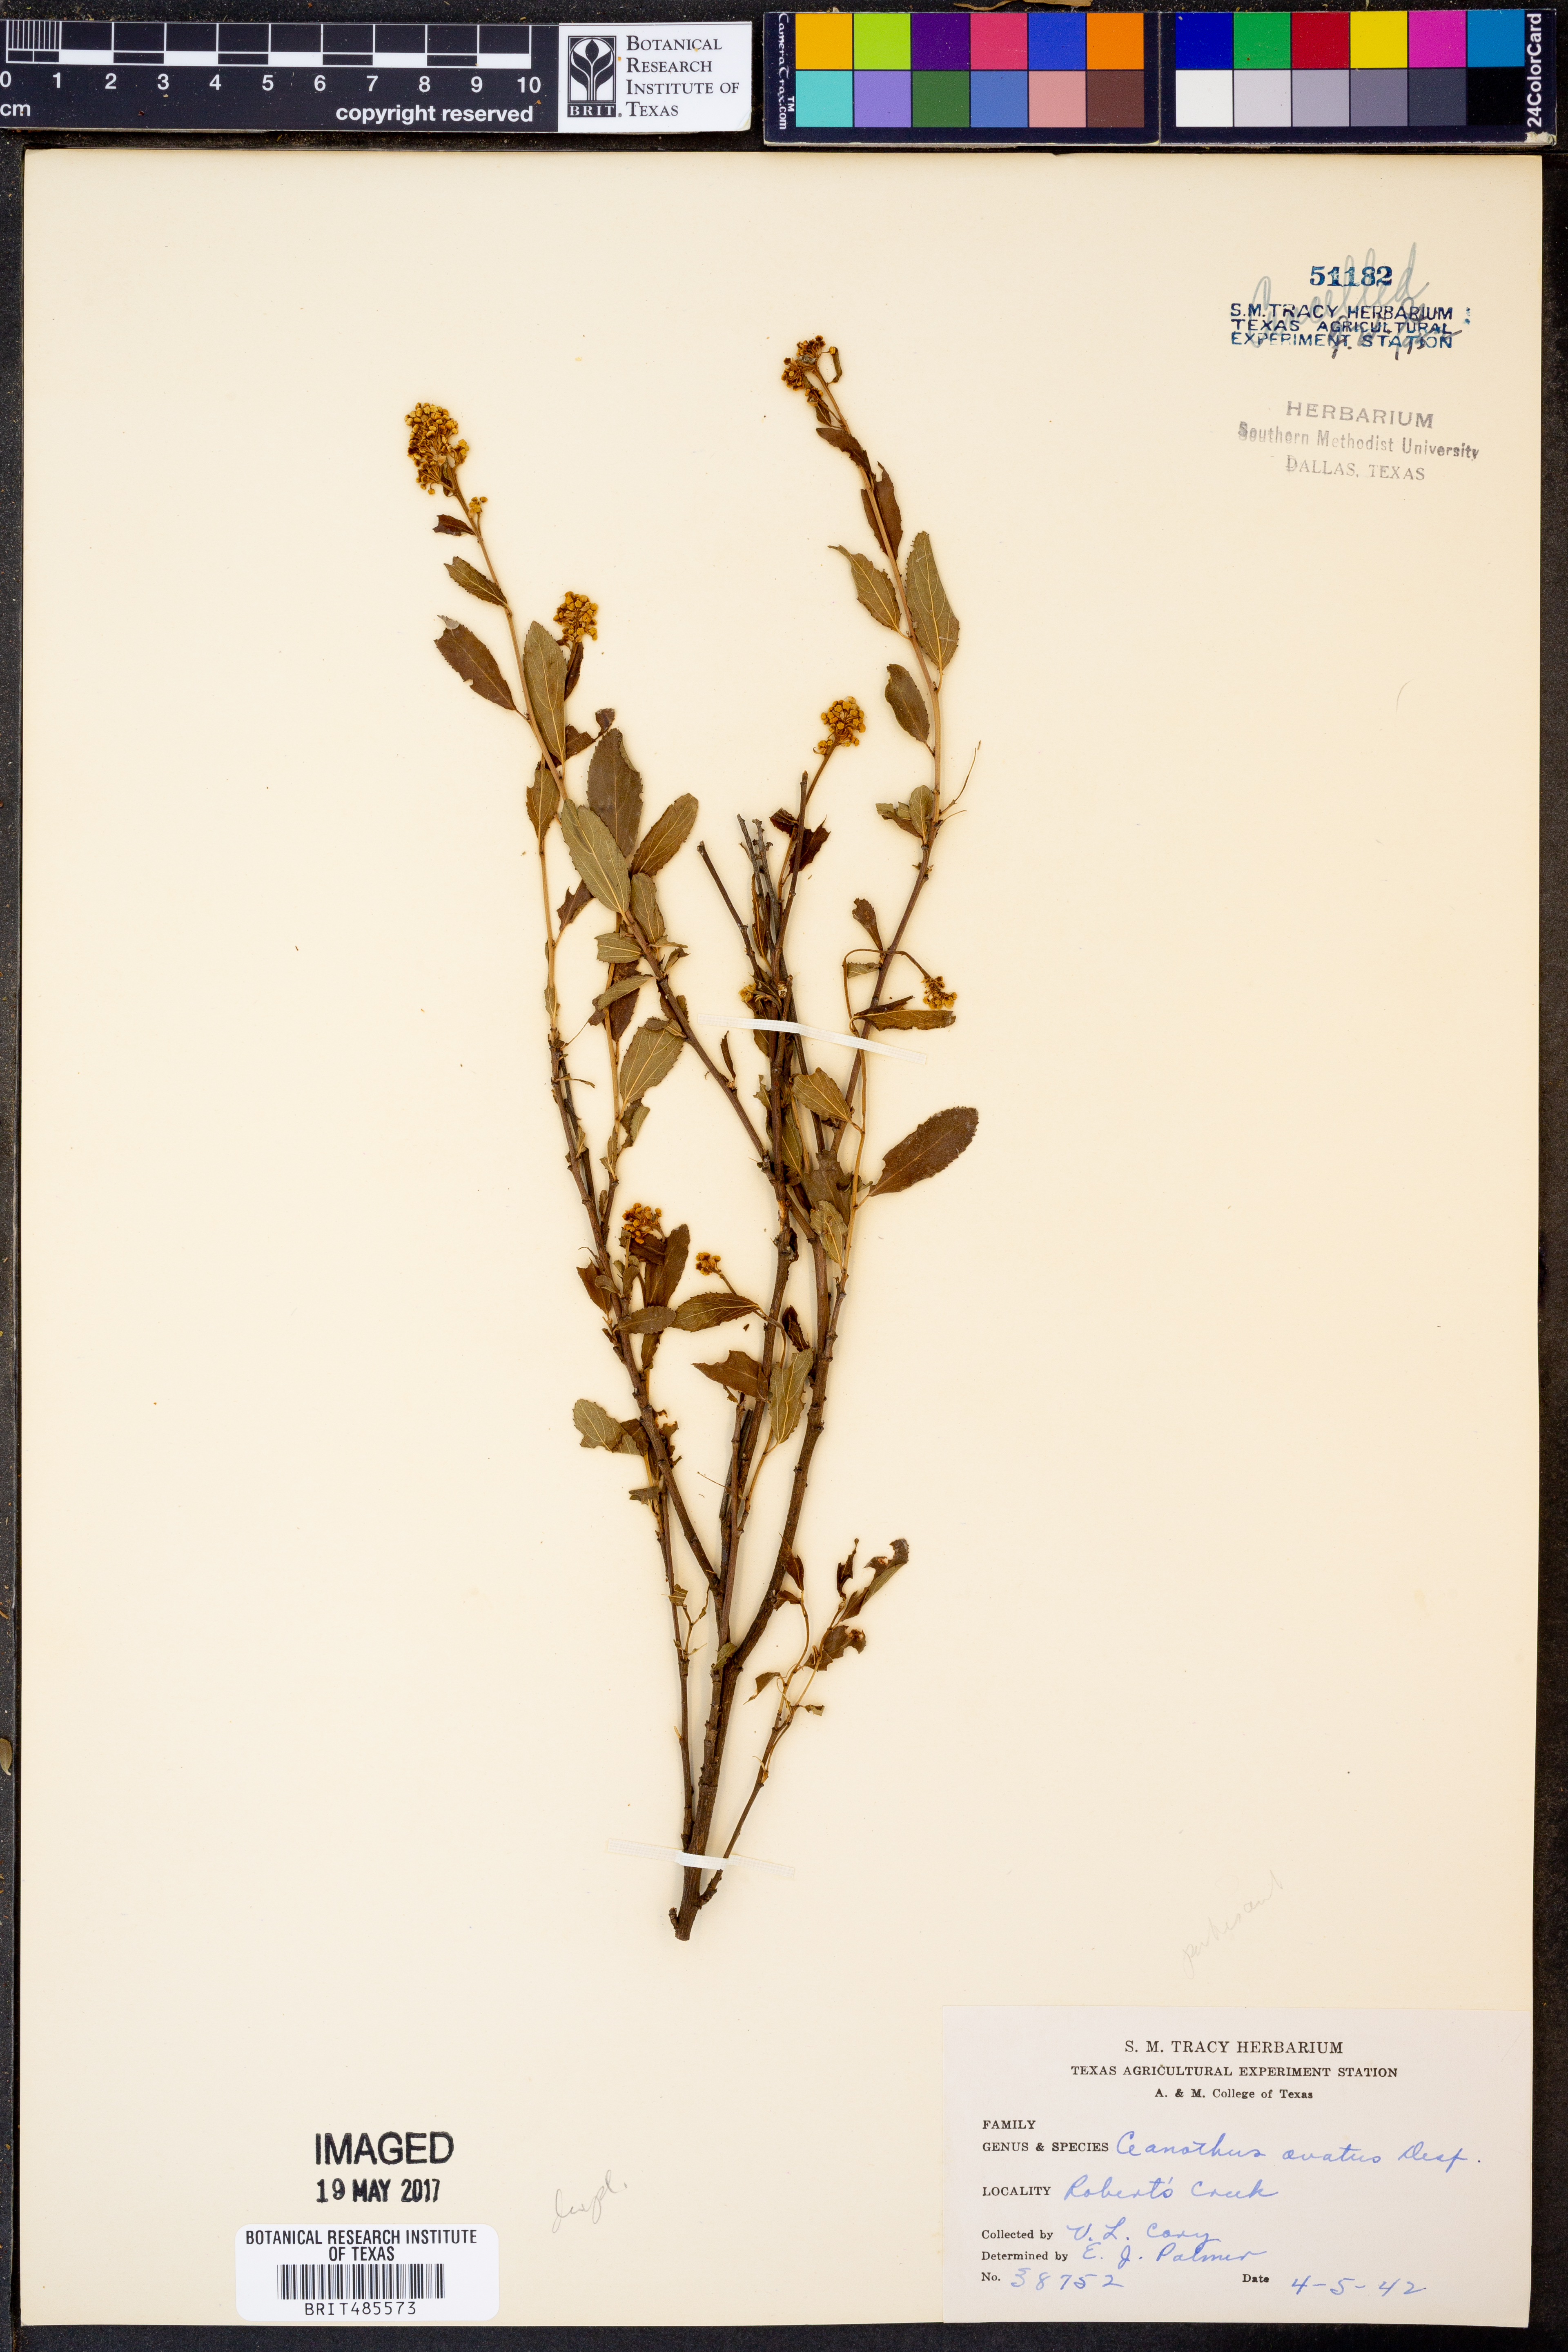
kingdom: Plantae
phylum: Tracheophyta
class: Magnoliopsida
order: Rosales
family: Rhamnaceae
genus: Ceanothus
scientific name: Ceanothus herbaceus
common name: Inland ceanothus
